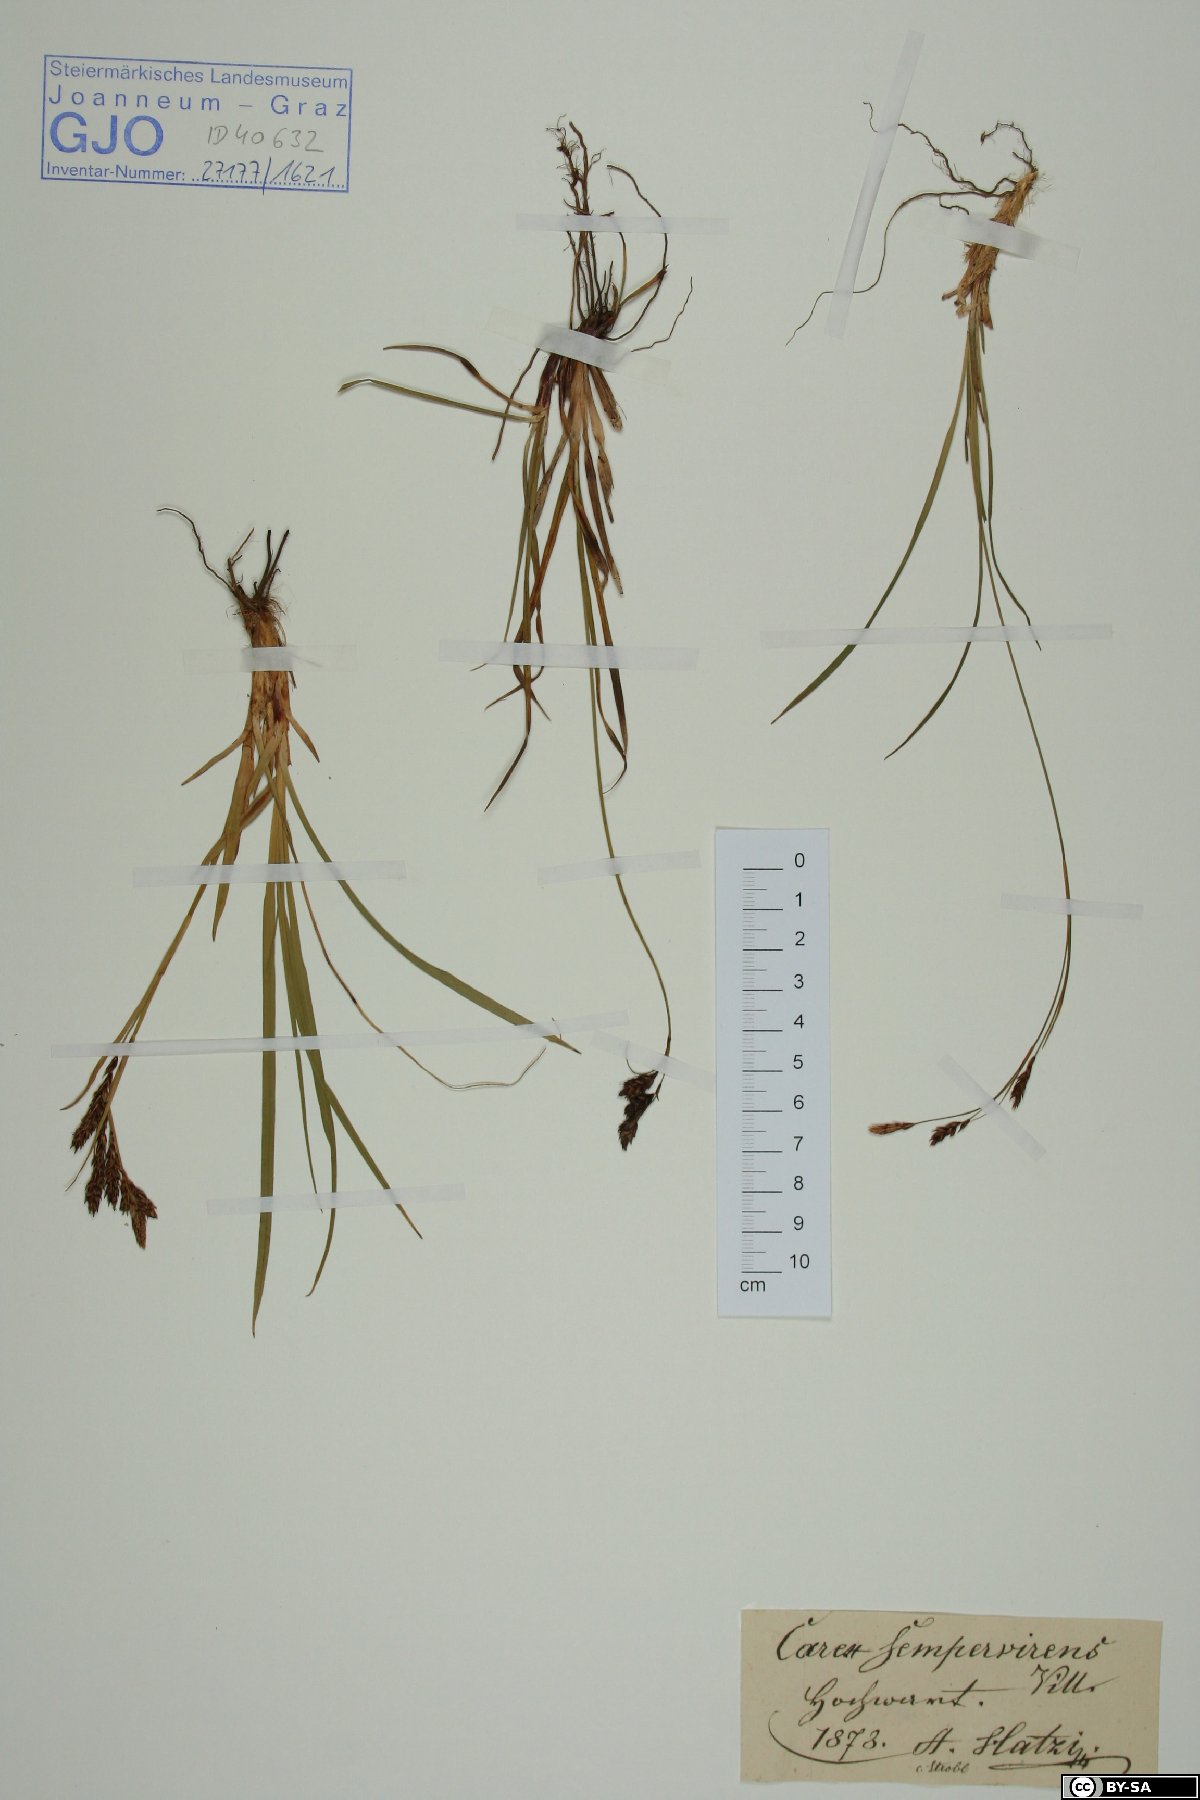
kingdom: Plantae
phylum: Tracheophyta
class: Liliopsida
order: Poales
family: Cyperaceae
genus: Carex
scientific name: Carex sempervirens
